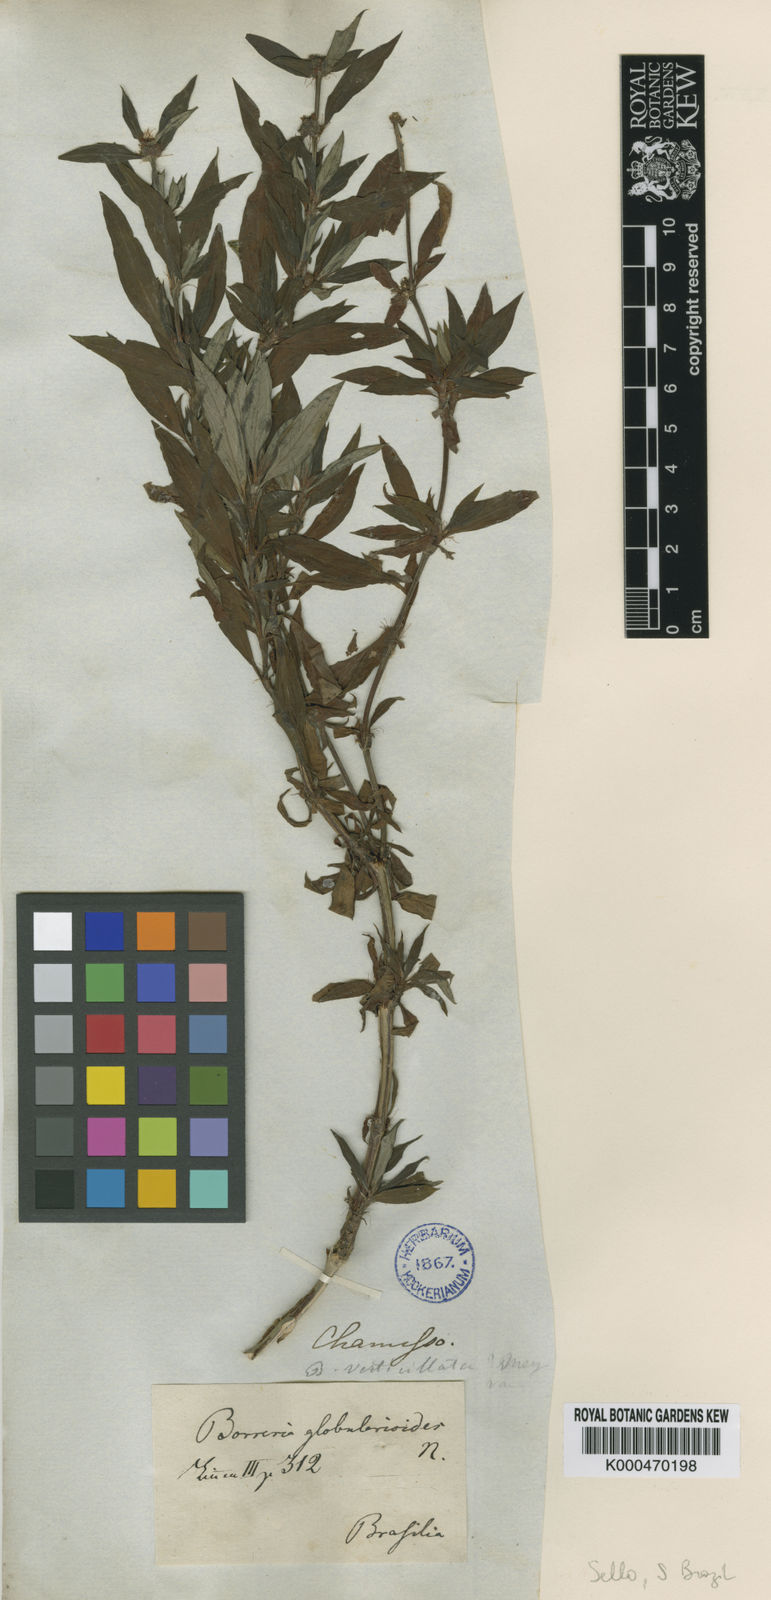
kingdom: Plantae
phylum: Tracheophyta
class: Magnoliopsida
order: Gentianales
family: Rubiaceae
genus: Spermacoce
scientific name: Spermacoce verticillata
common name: Shrubby false buttonweed
